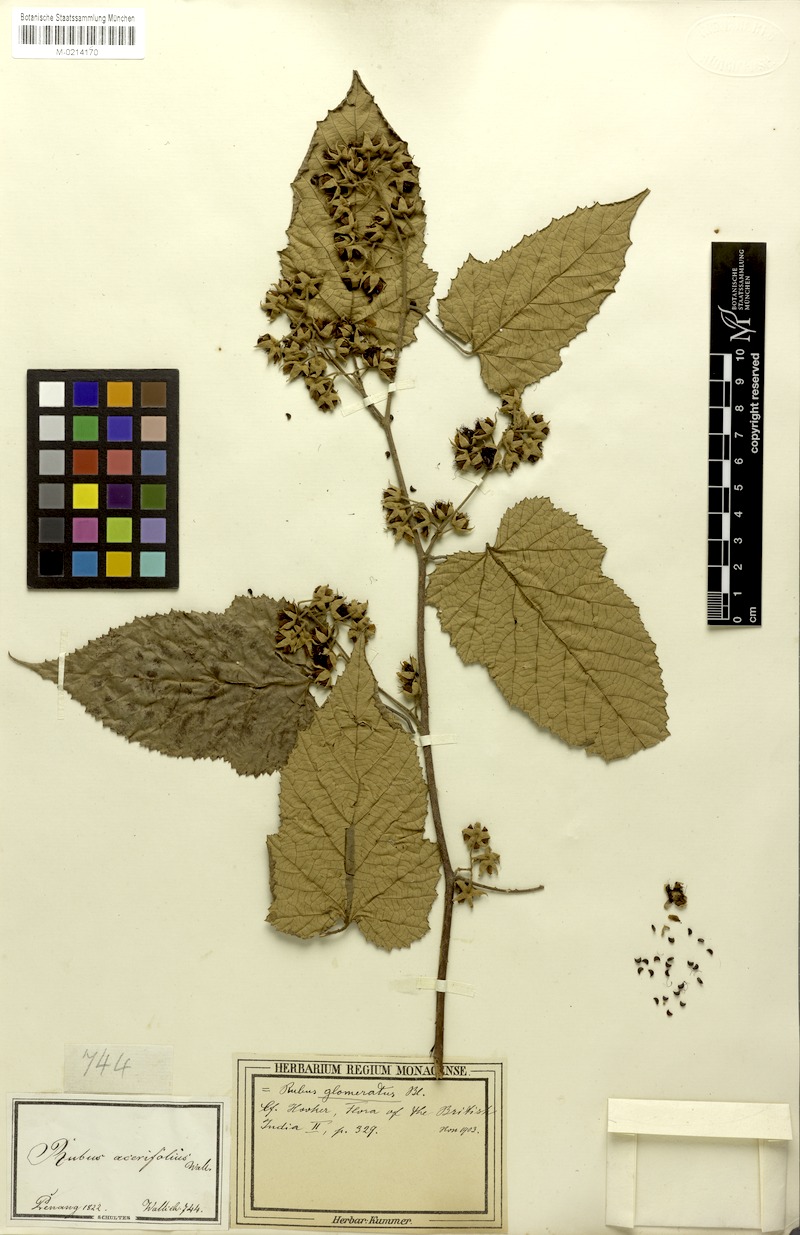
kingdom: Plantae
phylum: Tracheophyta
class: Magnoliopsida
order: Rosales
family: Rosaceae
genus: Rubus
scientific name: Rubus glomeratus
